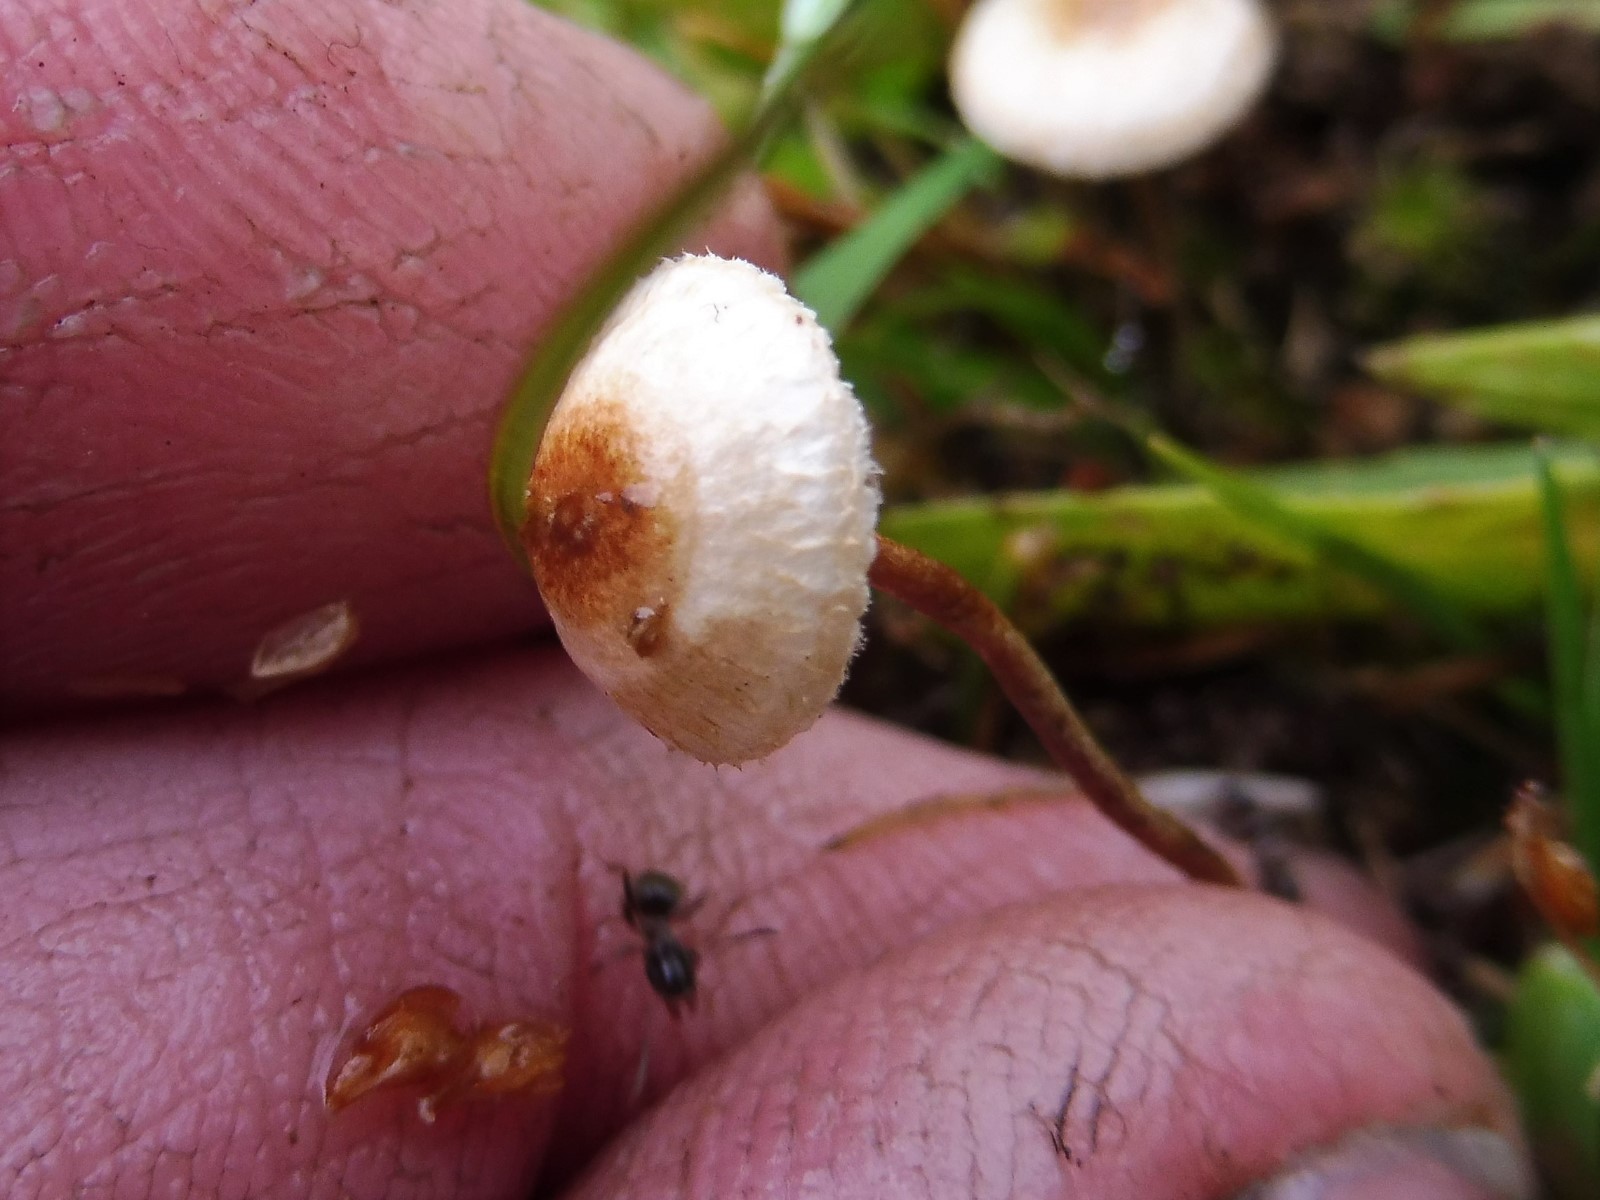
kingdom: Fungi
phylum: Basidiomycota
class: Agaricomycetes
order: Agaricales
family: Marasmiaceae
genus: Crinipellis
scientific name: Crinipellis scabella
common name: børstefod
